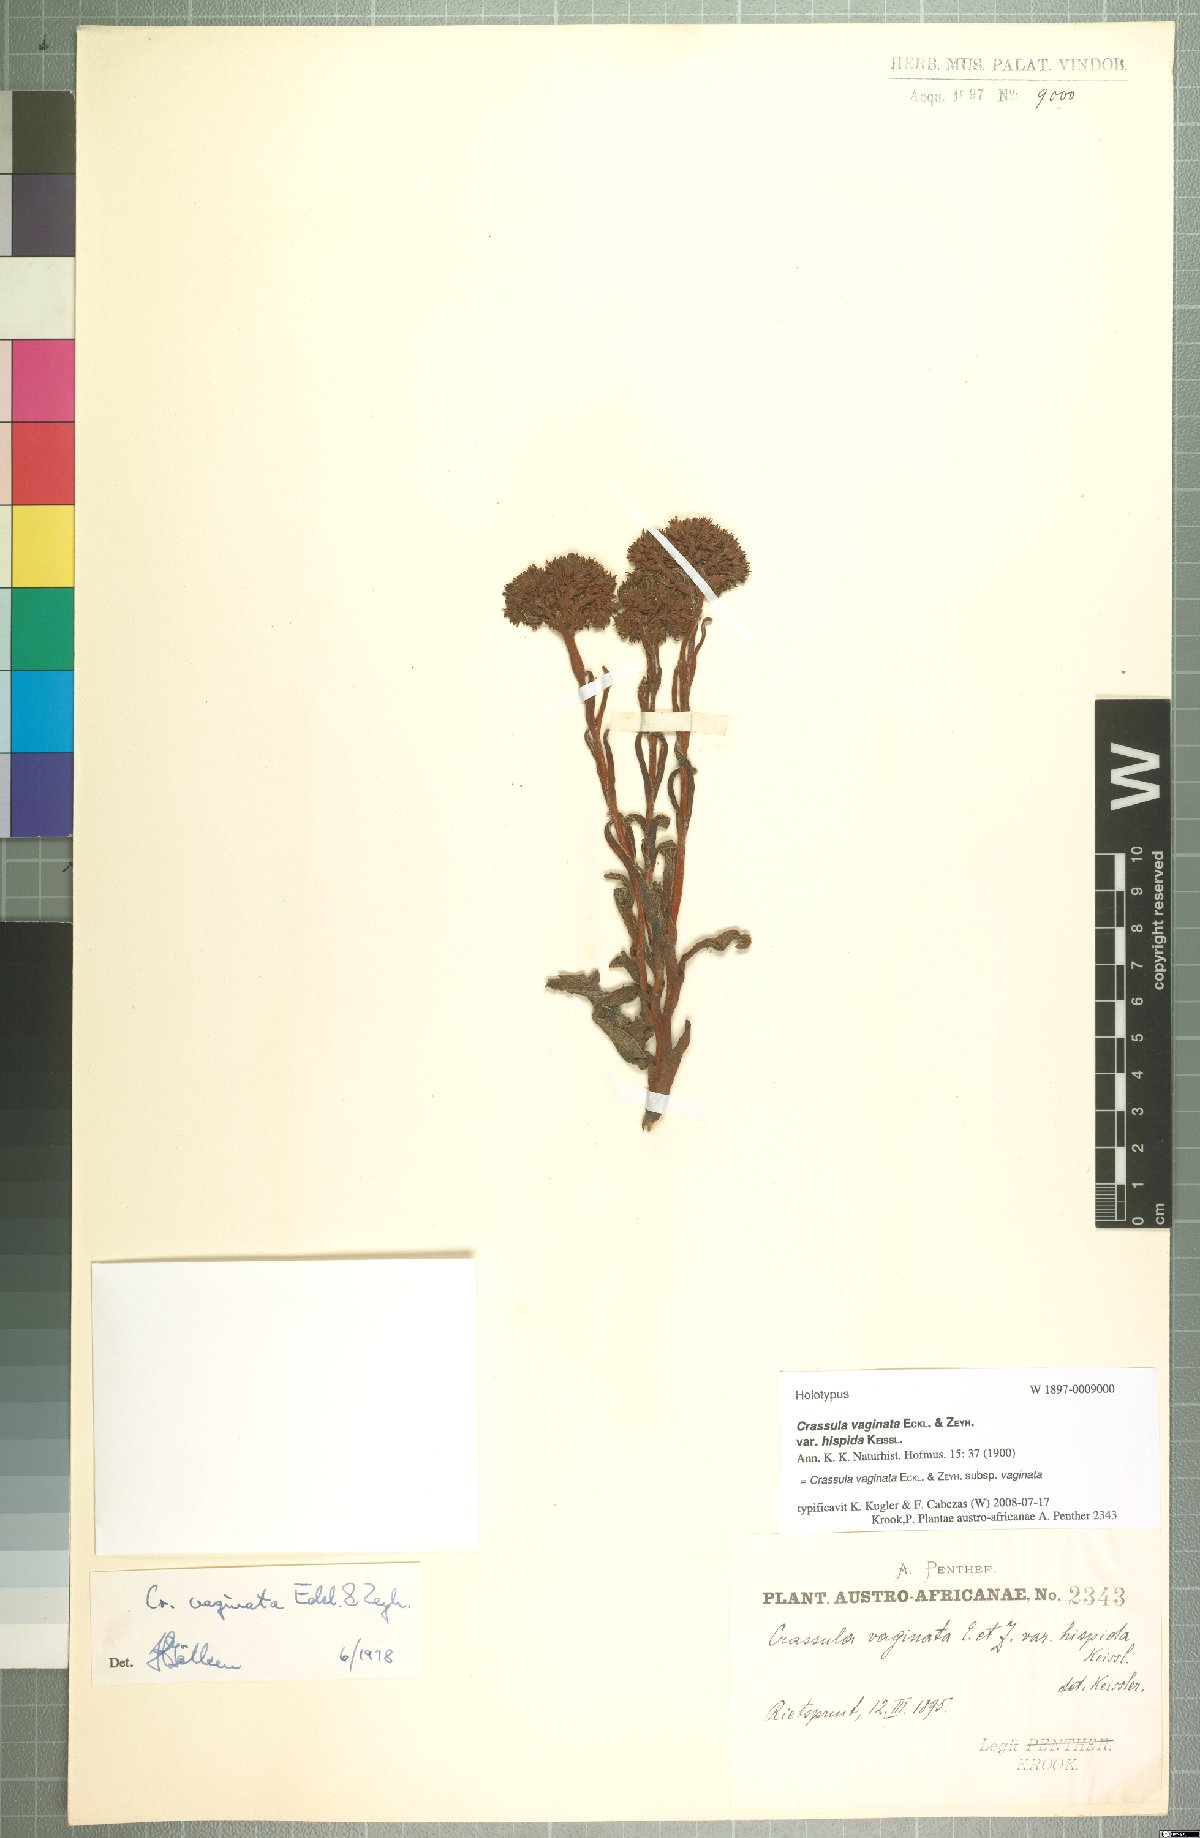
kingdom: Plantae
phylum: Tracheophyta
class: Magnoliopsida
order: Saxifragales
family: Crassulaceae
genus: Crassula
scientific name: Crassula vaginata
